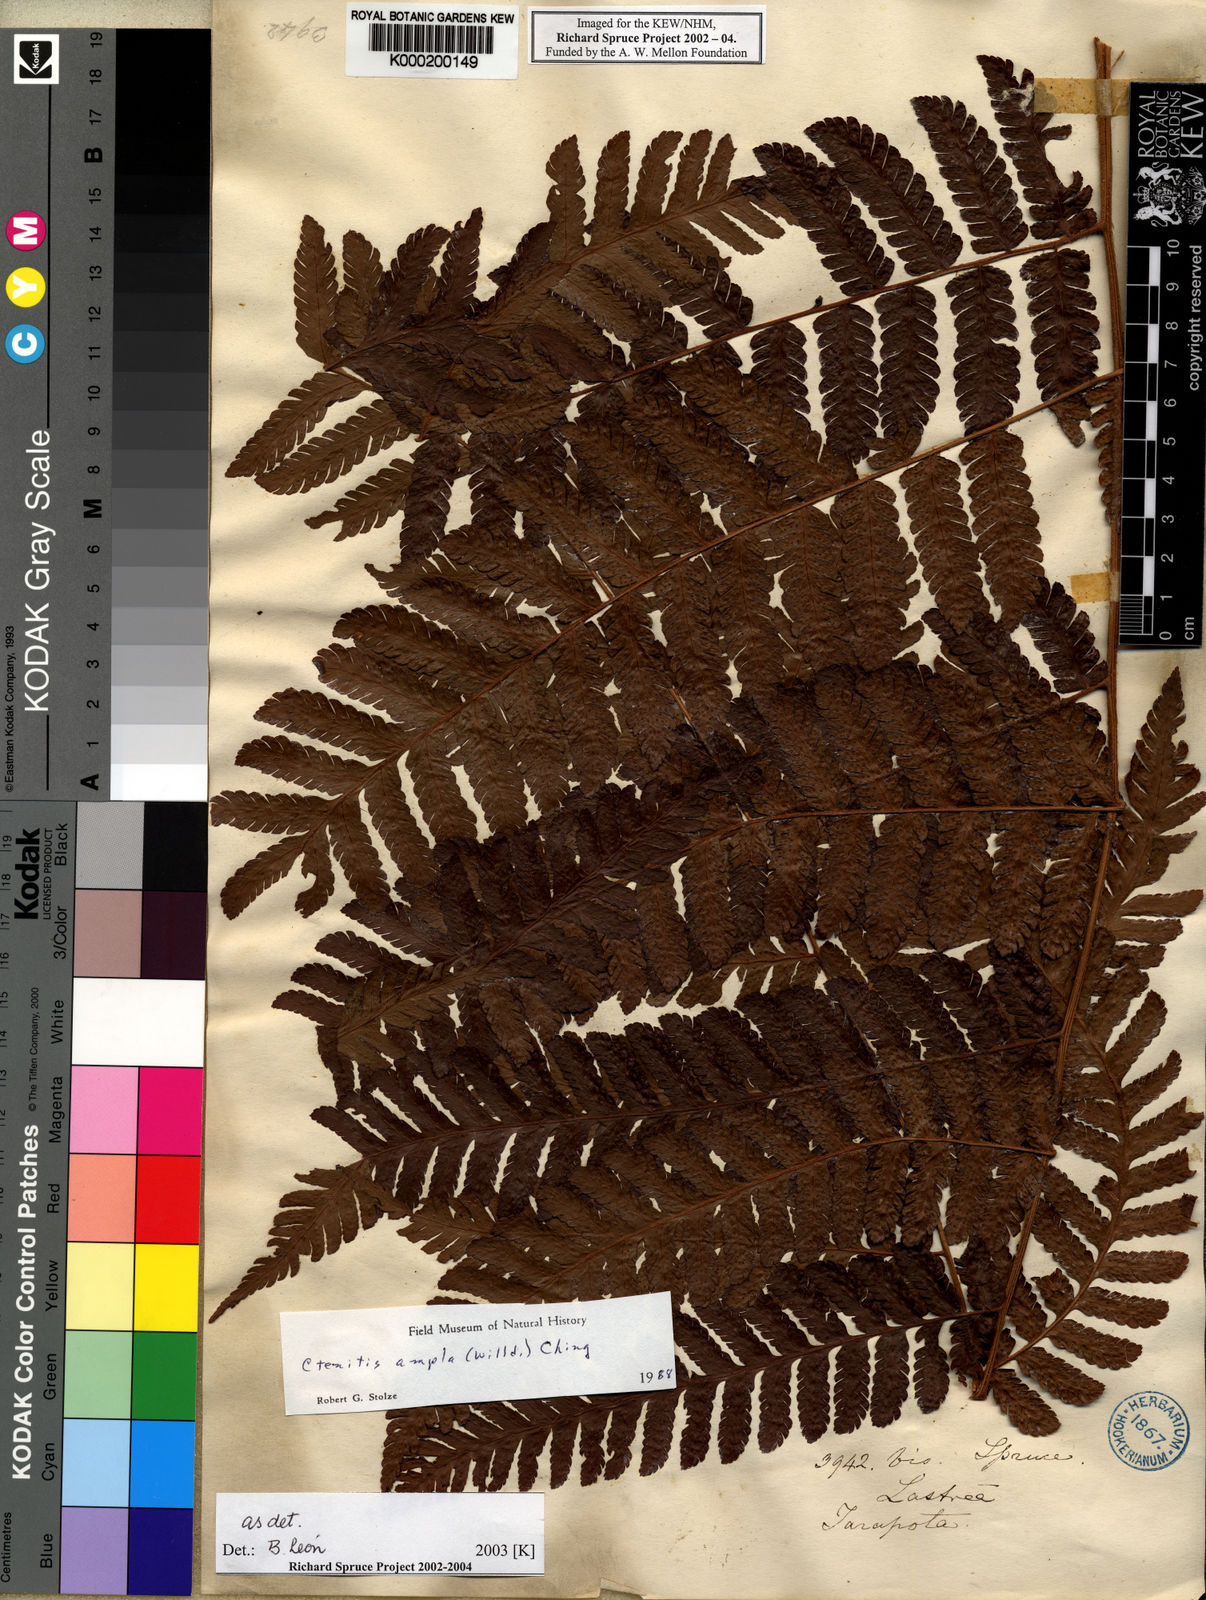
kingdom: Plantae
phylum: Tracheophyta
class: Polypodiopsida
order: Polypodiales
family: Dryopteridaceae
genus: Ctenitis
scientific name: Ctenitis sloanei
